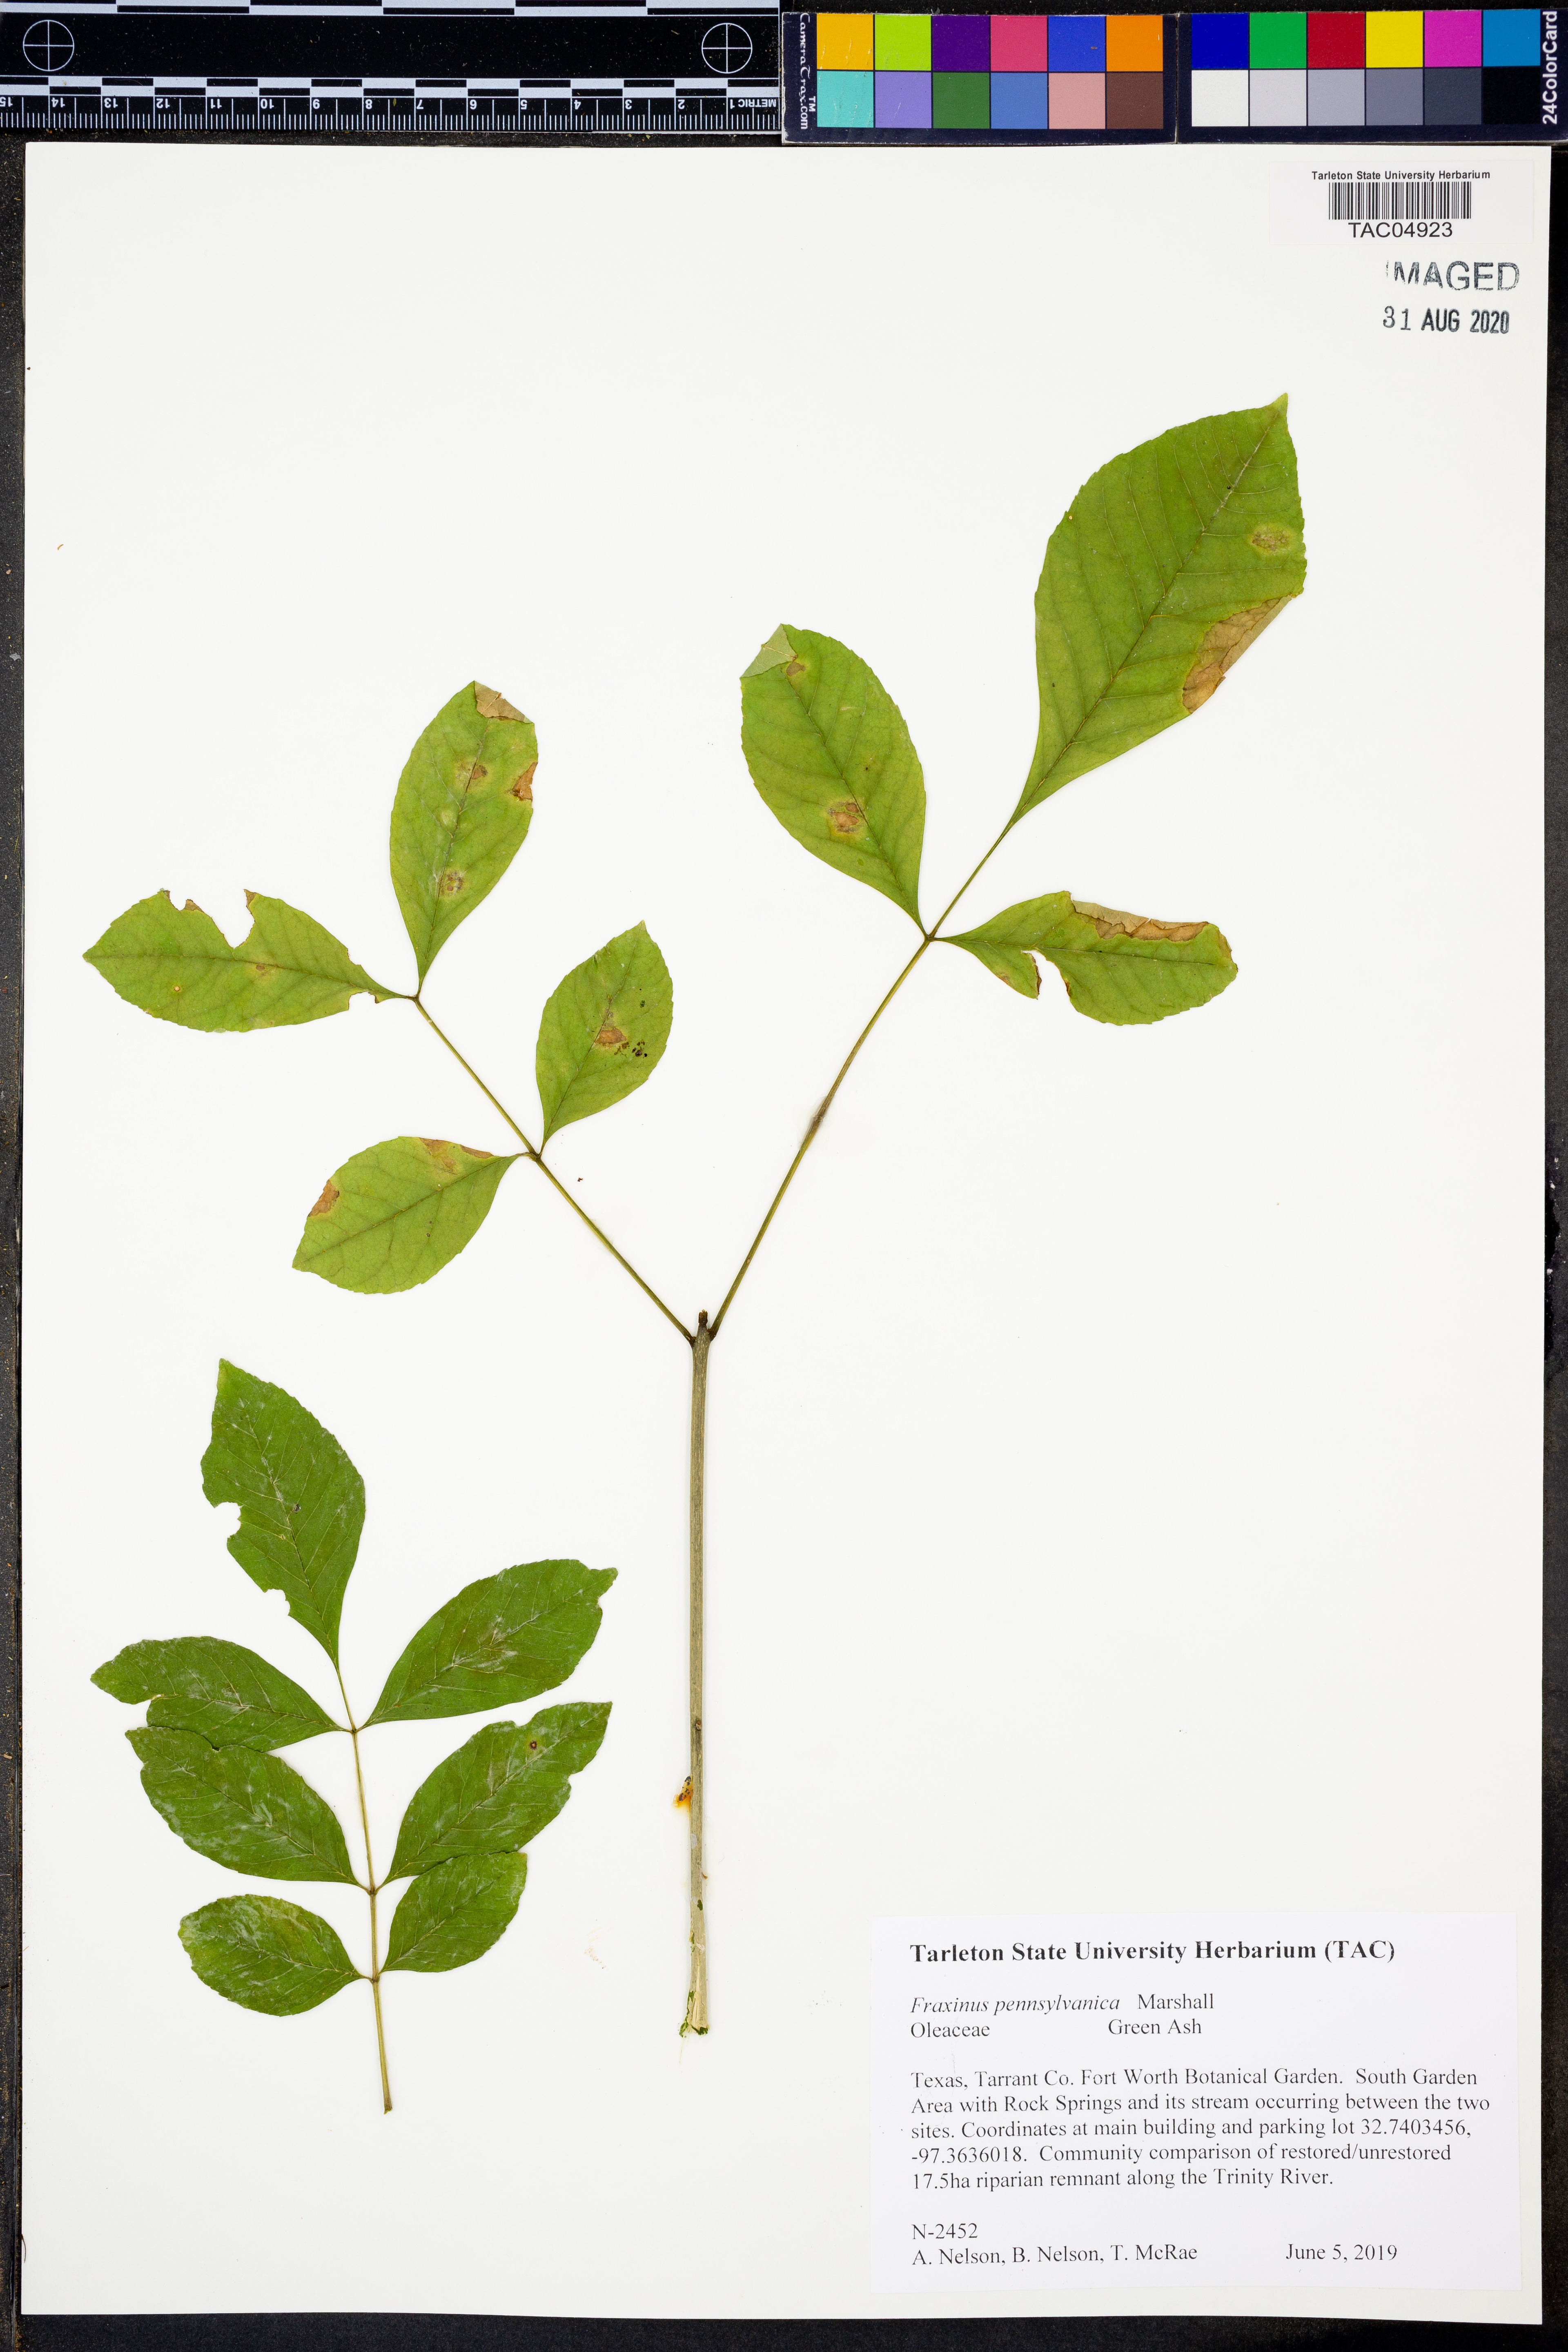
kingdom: Plantae
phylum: Tracheophyta
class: Magnoliopsida
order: Lamiales
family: Oleaceae
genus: Fraxinus
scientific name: Fraxinus pennsylvanica
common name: Green ash
